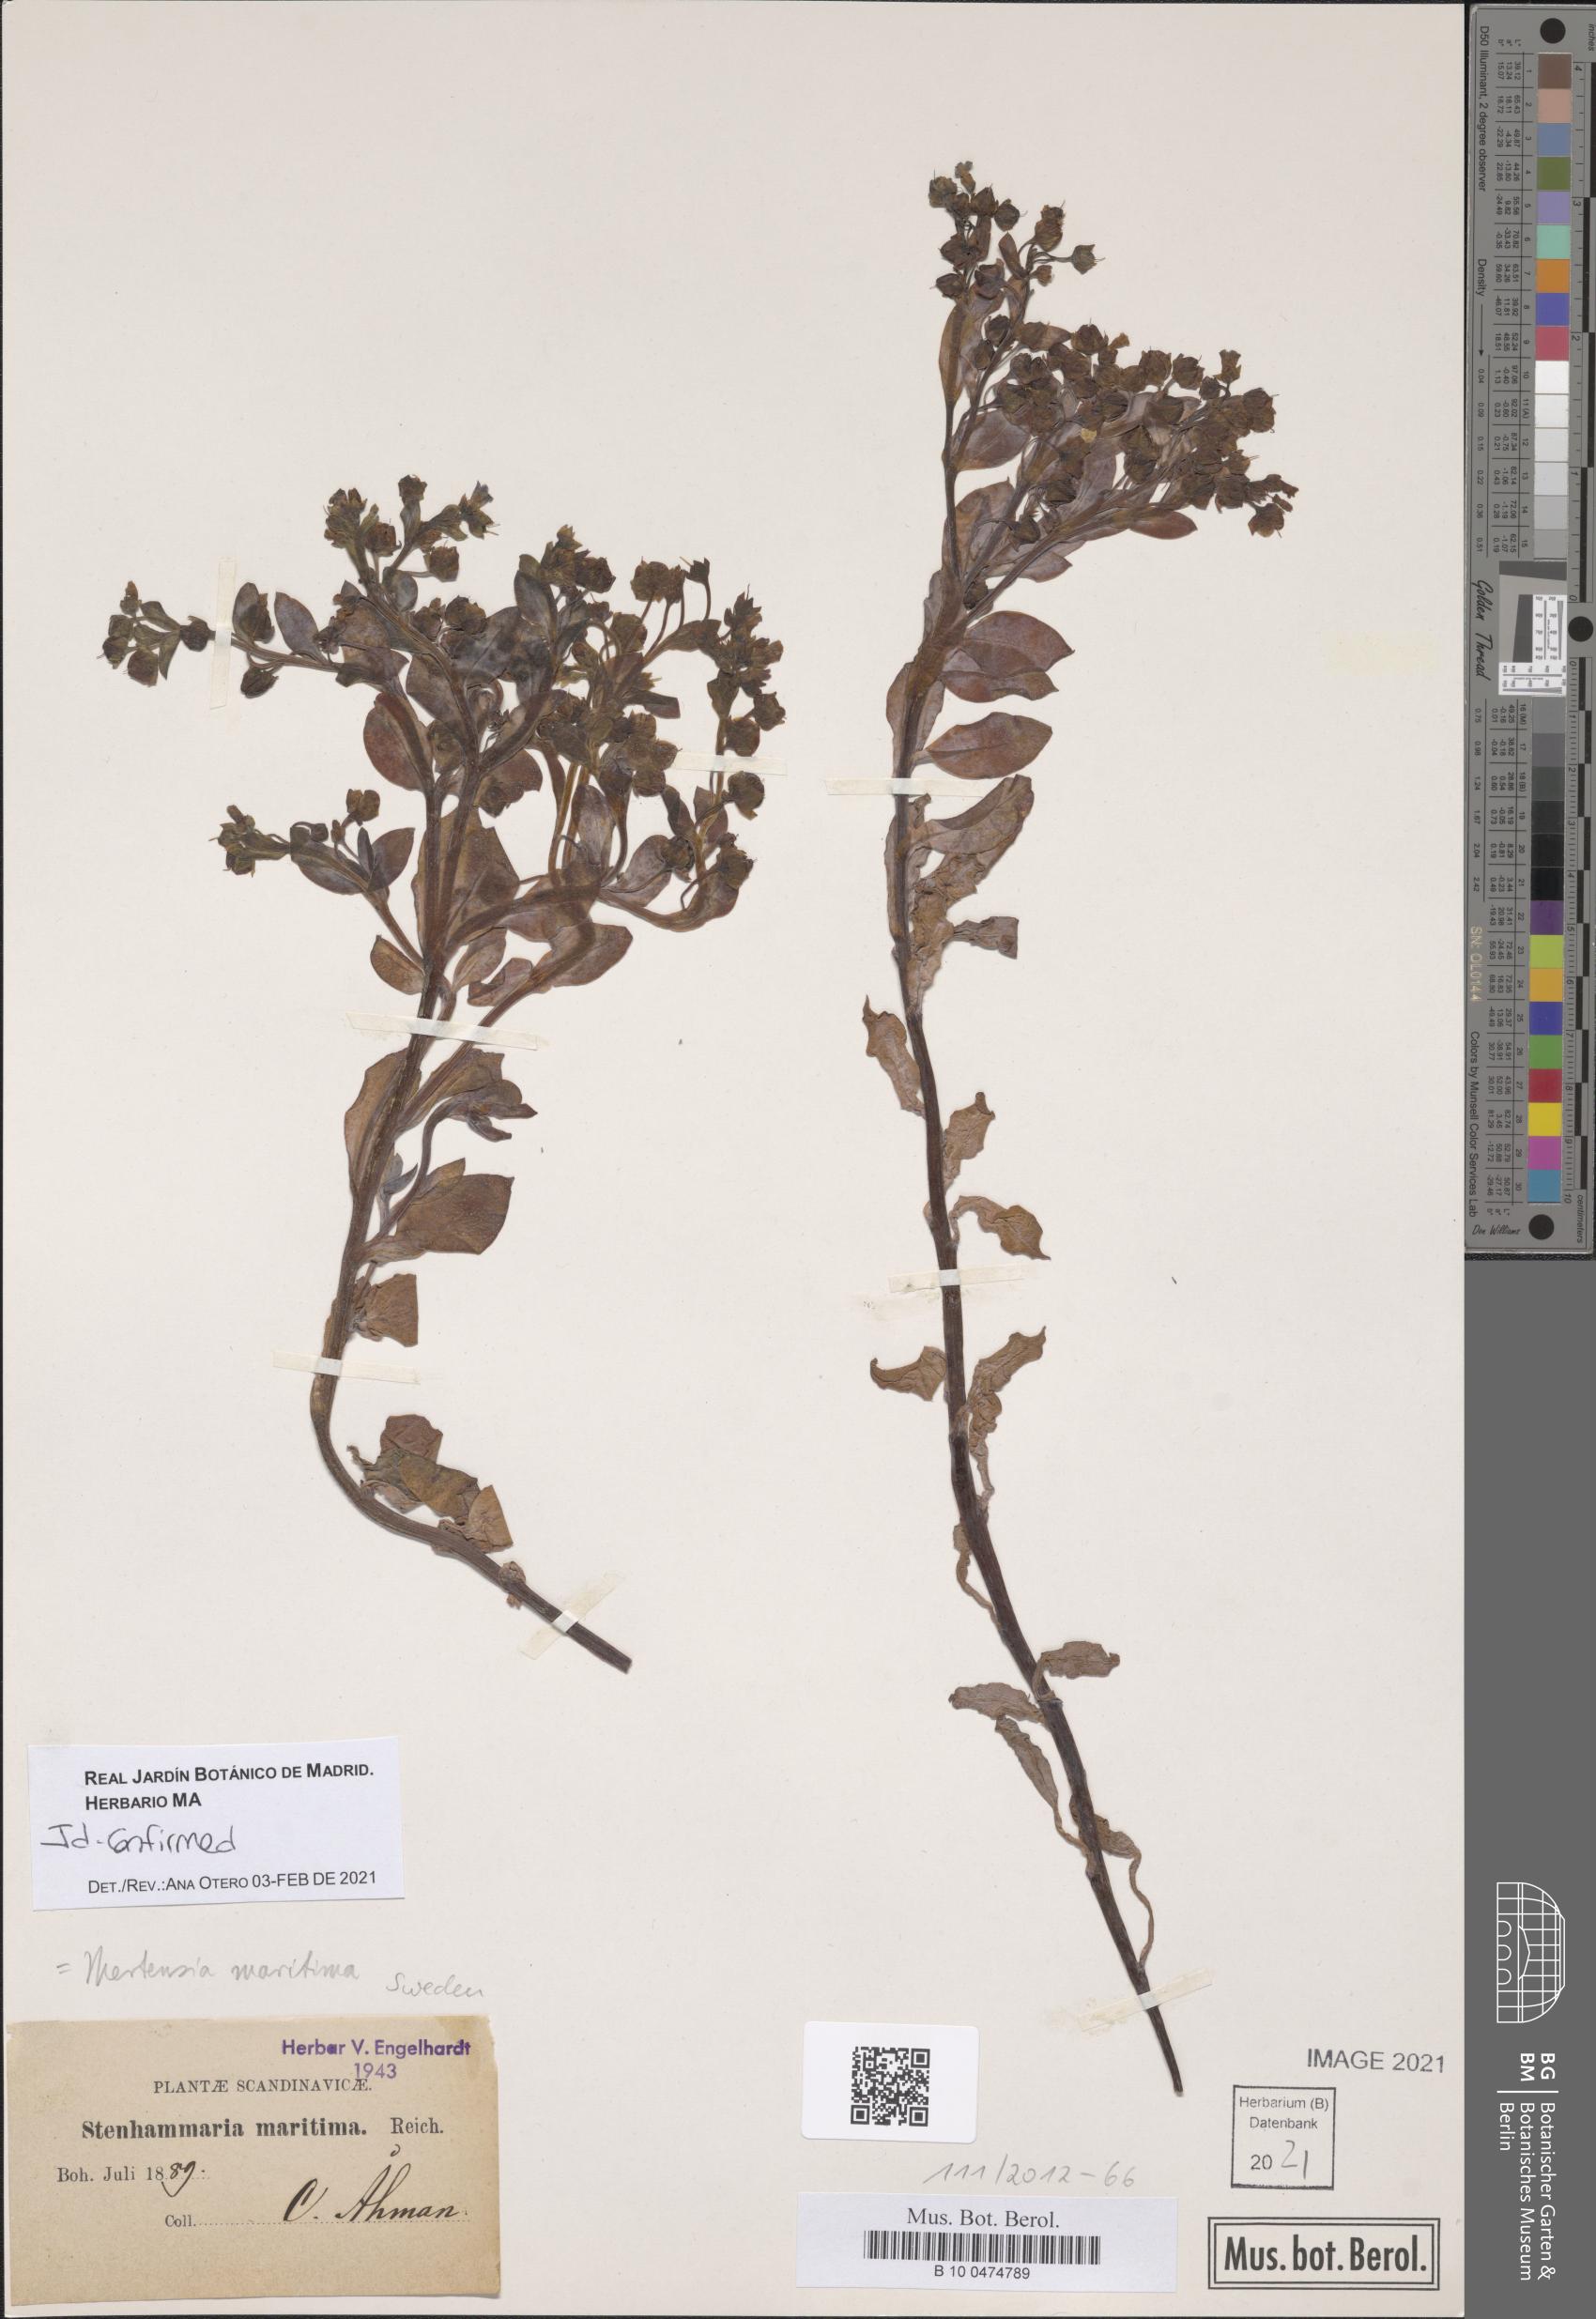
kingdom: Plantae
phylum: Tracheophyta
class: Magnoliopsida
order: Boraginales
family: Boraginaceae
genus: Mertensia
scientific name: Mertensia maritima
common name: Oysterplant
